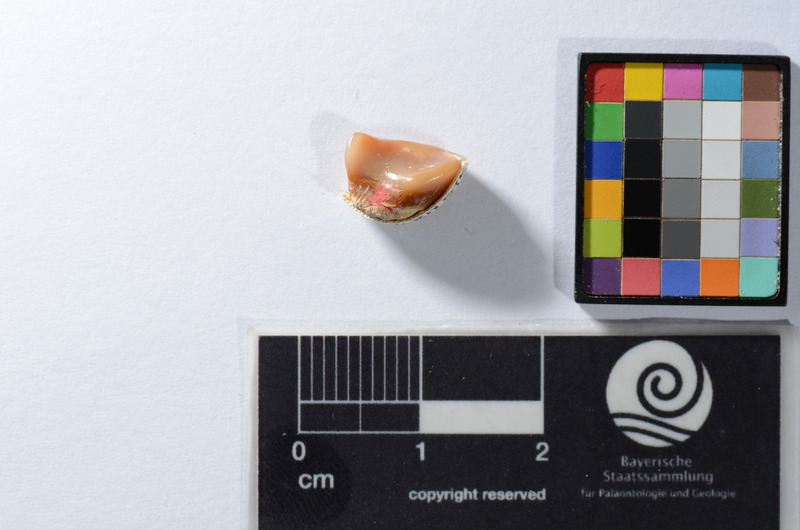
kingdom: Animalia
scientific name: Animalia
